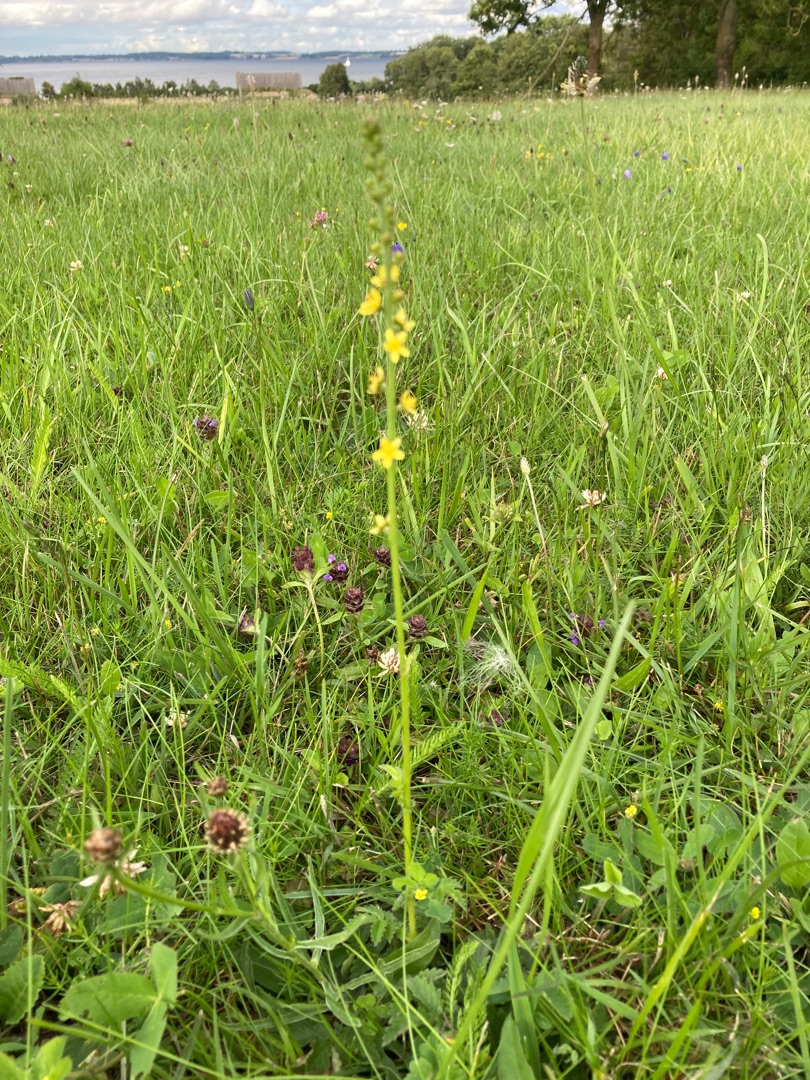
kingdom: Plantae
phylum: Tracheophyta
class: Magnoliopsida
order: Rosales
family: Rosaceae
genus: Agrimonia
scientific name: Agrimonia eupatoria
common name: Almindelig agermåne
